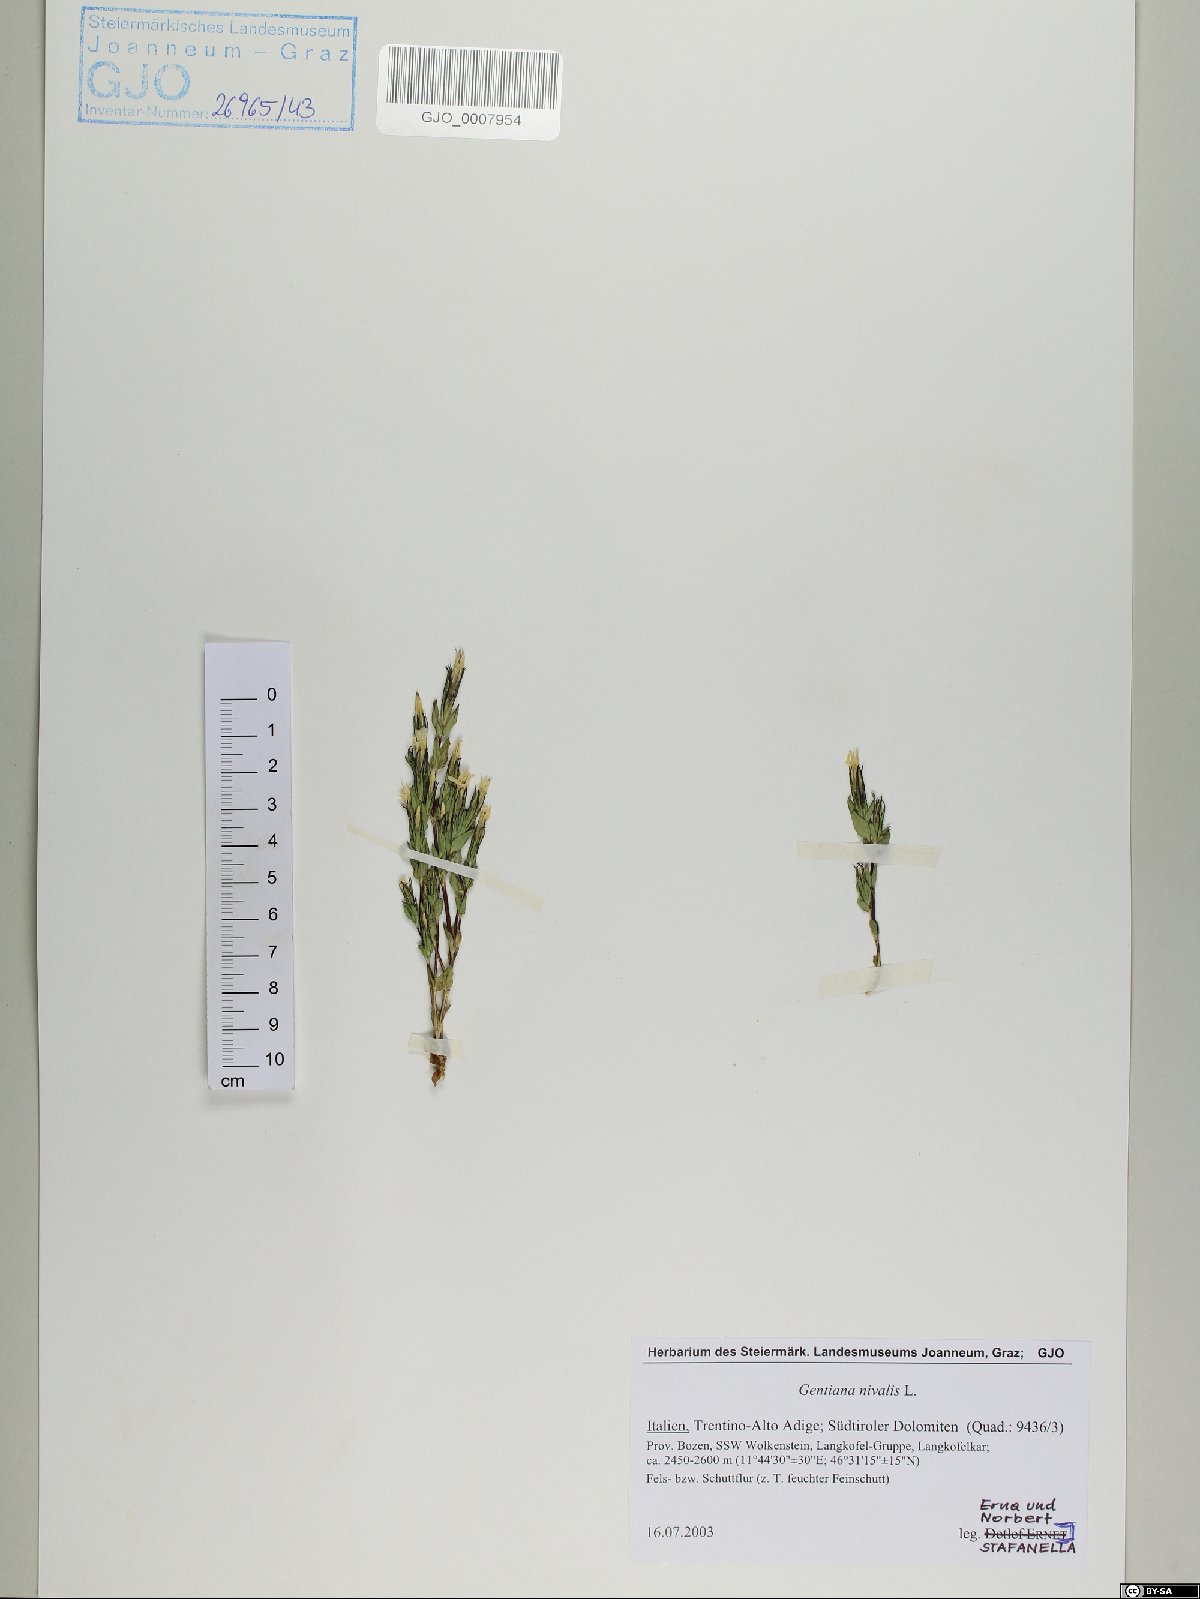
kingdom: Plantae
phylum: Tracheophyta
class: Magnoliopsida
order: Gentianales
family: Gentianaceae
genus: Gentiana
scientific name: Gentiana nivalis
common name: Alpine gentian
